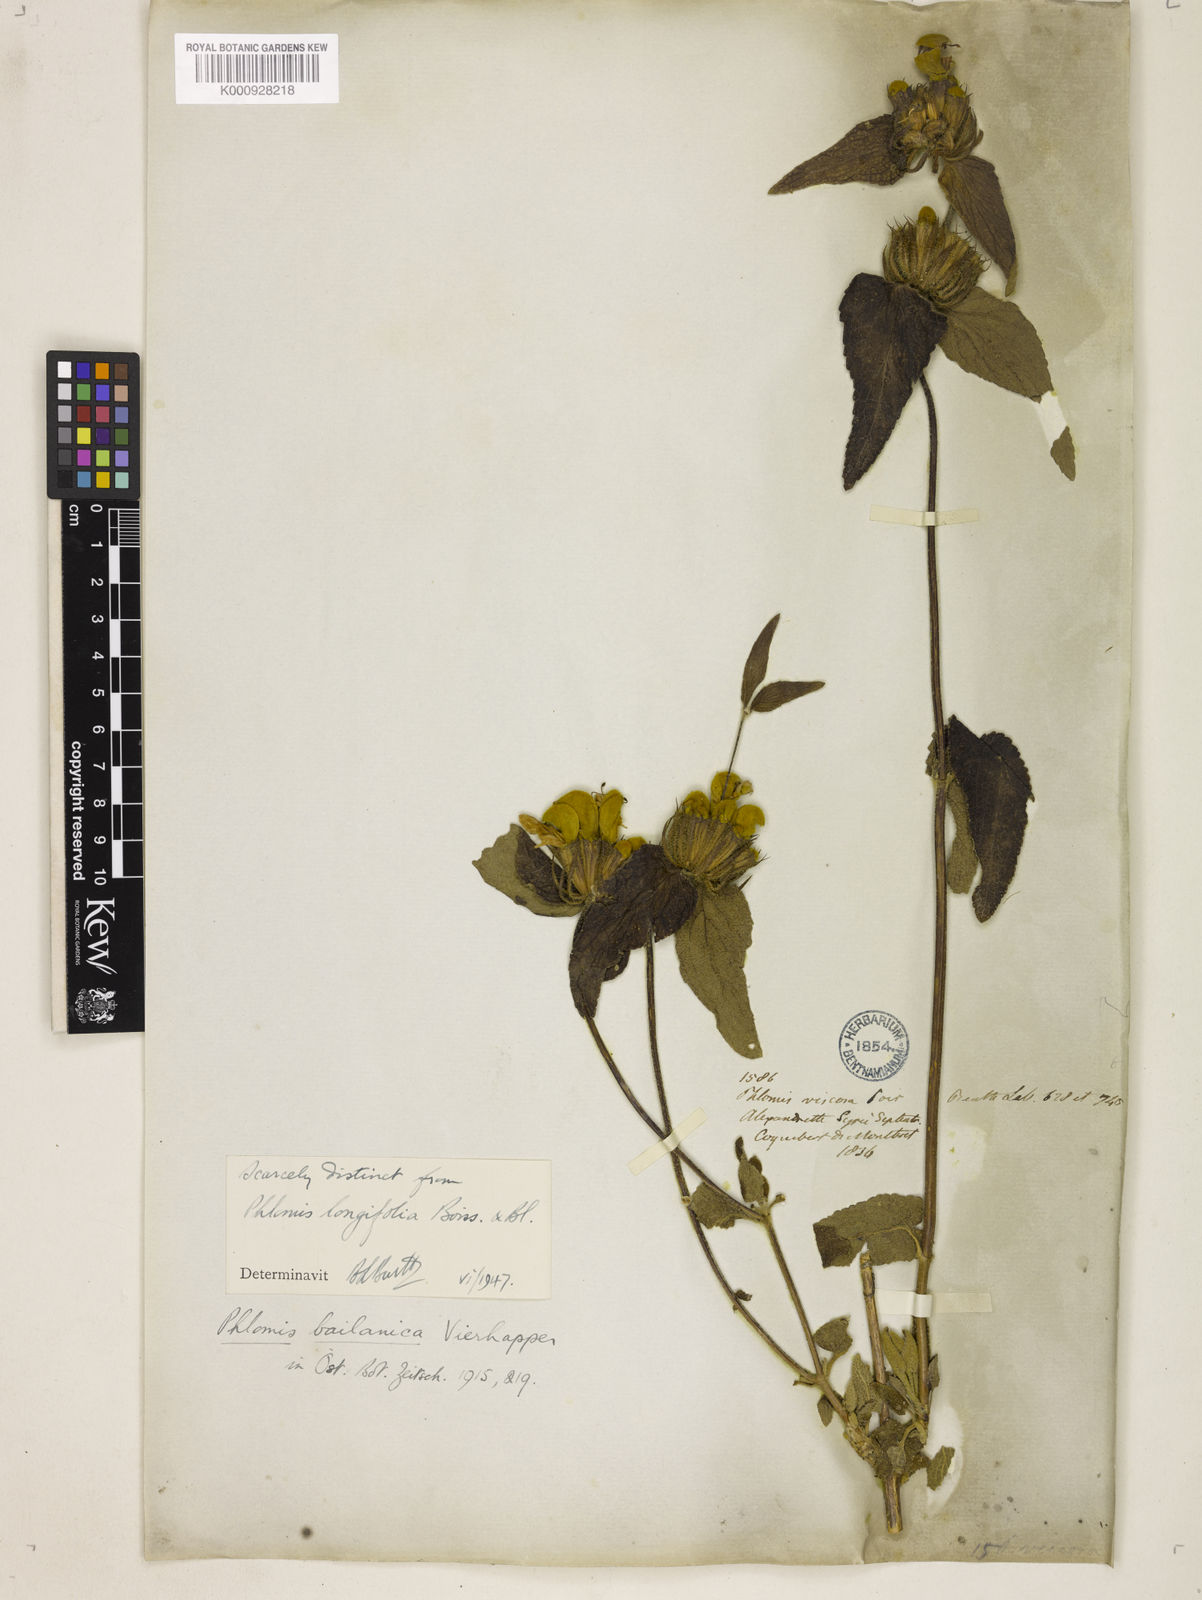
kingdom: Plantae
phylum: Tracheophyta
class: Magnoliopsida
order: Lamiales
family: Lamiaceae
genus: Phlomis
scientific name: Phlomis longifolia
